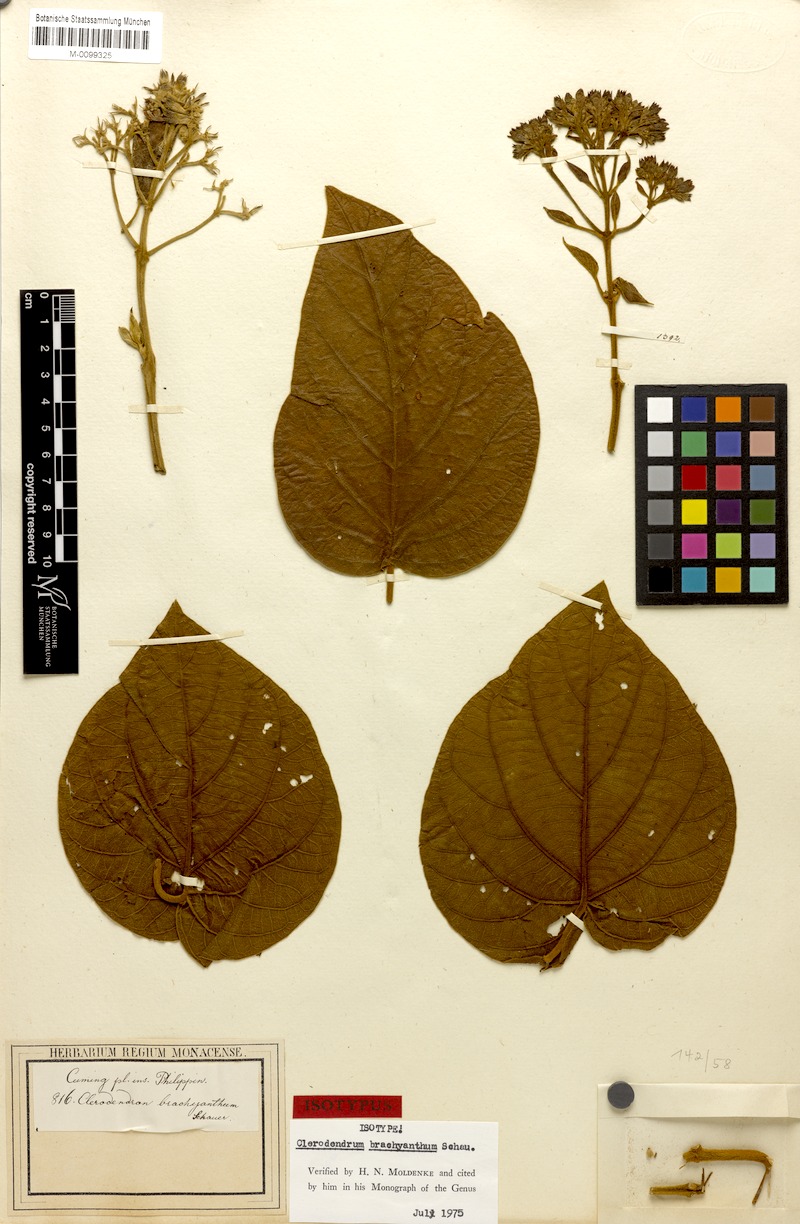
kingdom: Plantae
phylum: Tracheophyta
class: Magnoliopsida
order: Lamiales
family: Lamiaceae
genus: Clerodendrum
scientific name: Clerodendrum brachyanthum
